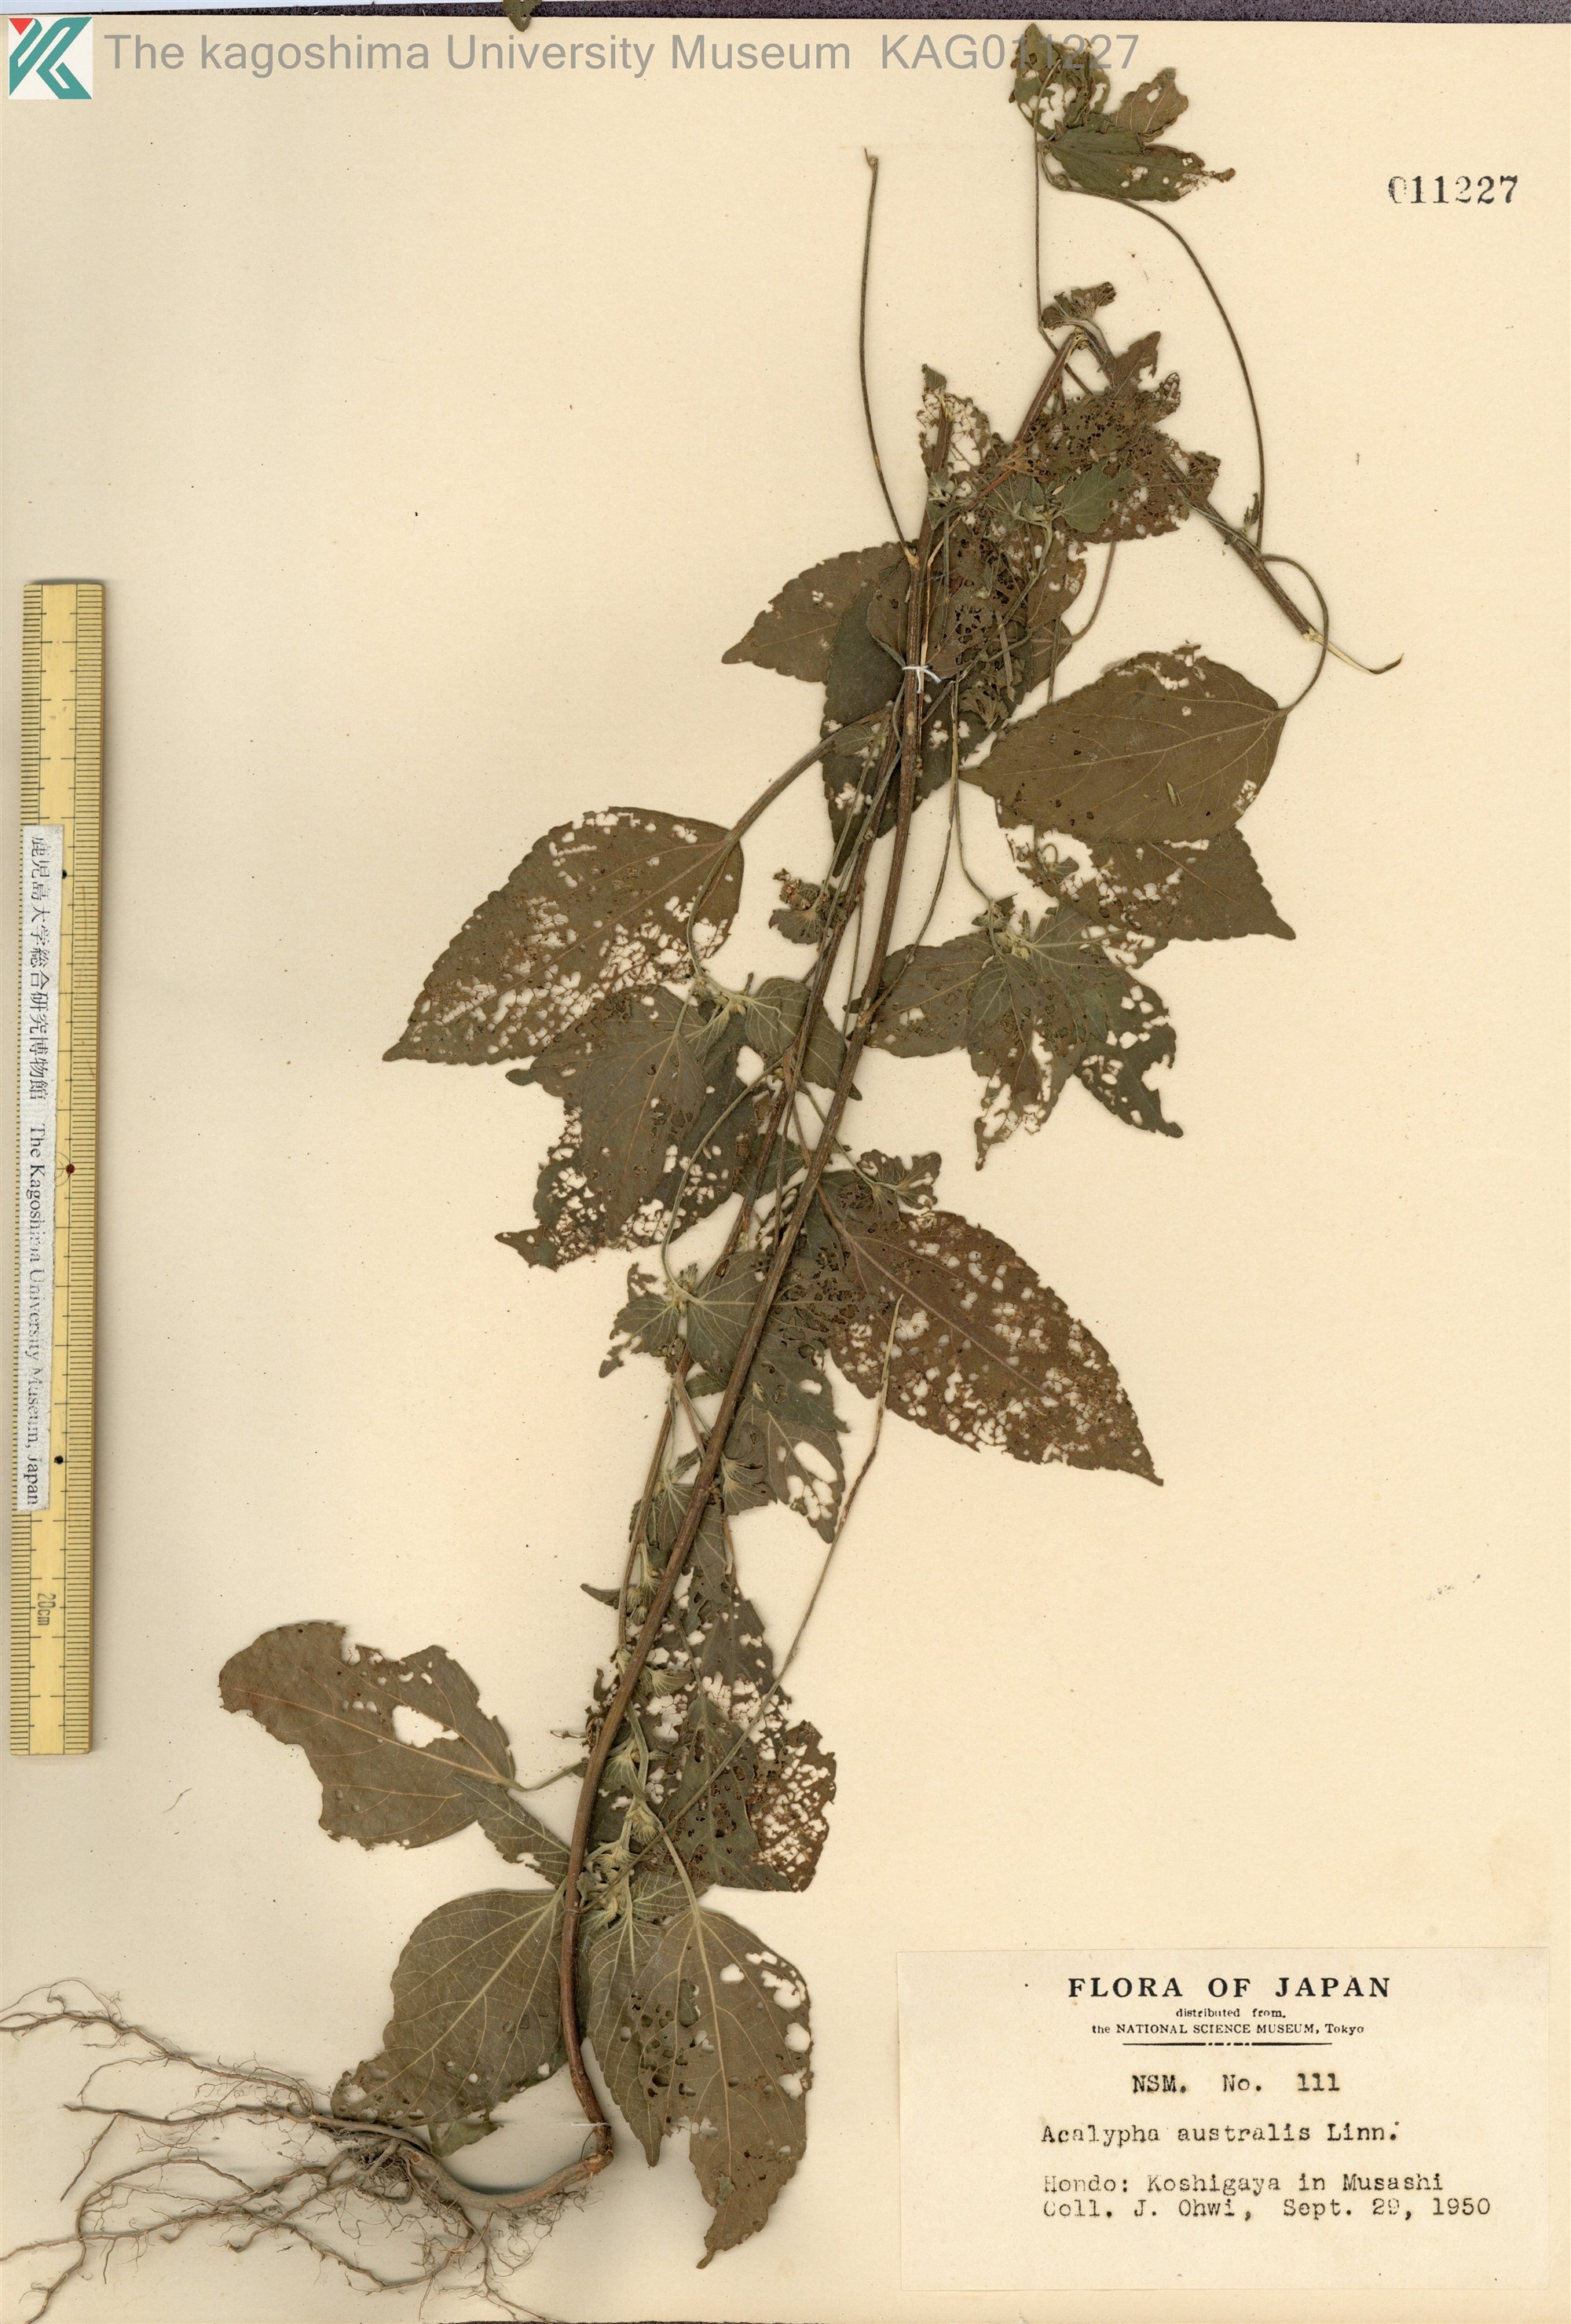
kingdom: Plantae
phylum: Tracheophyta
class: Magnoliopsida
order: Malpighiales
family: Euphorbiaceae
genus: Acalypha
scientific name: Acalypha australis
